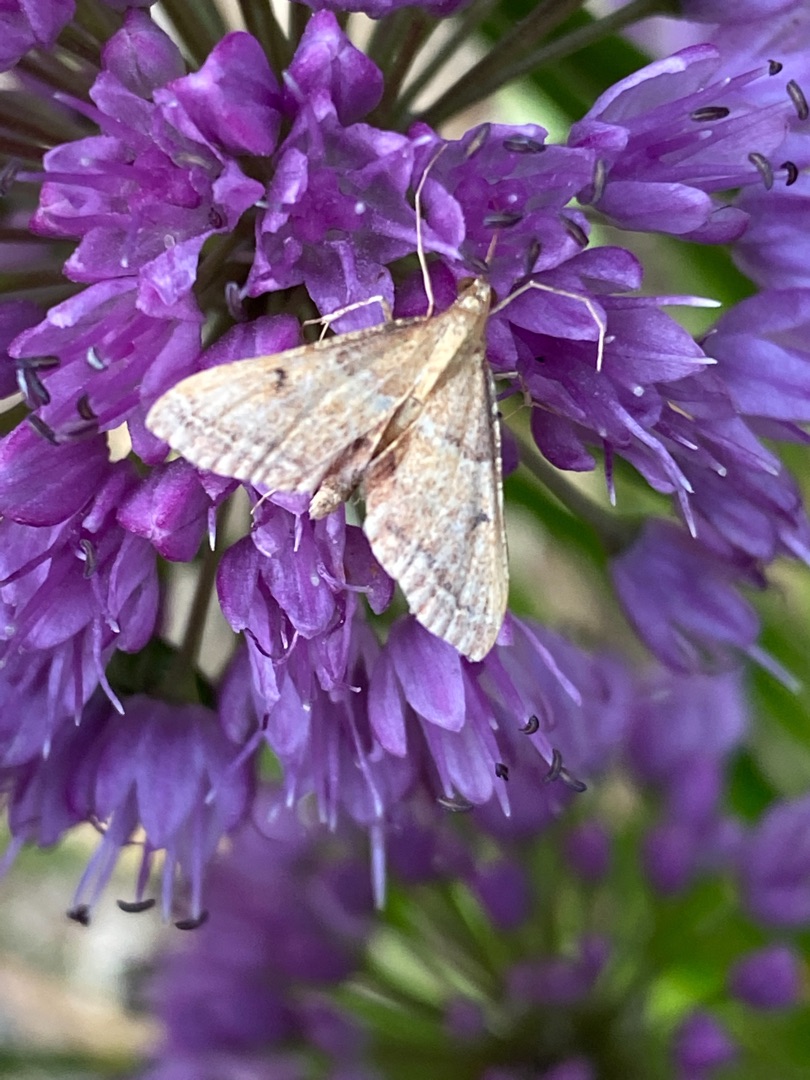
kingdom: Animalia
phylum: Arthropoda
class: Insecta
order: Lepidoptera
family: Pyralidae
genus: Endotricha
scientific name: Endotricha flammealis
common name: Løvkrathalvmøl
